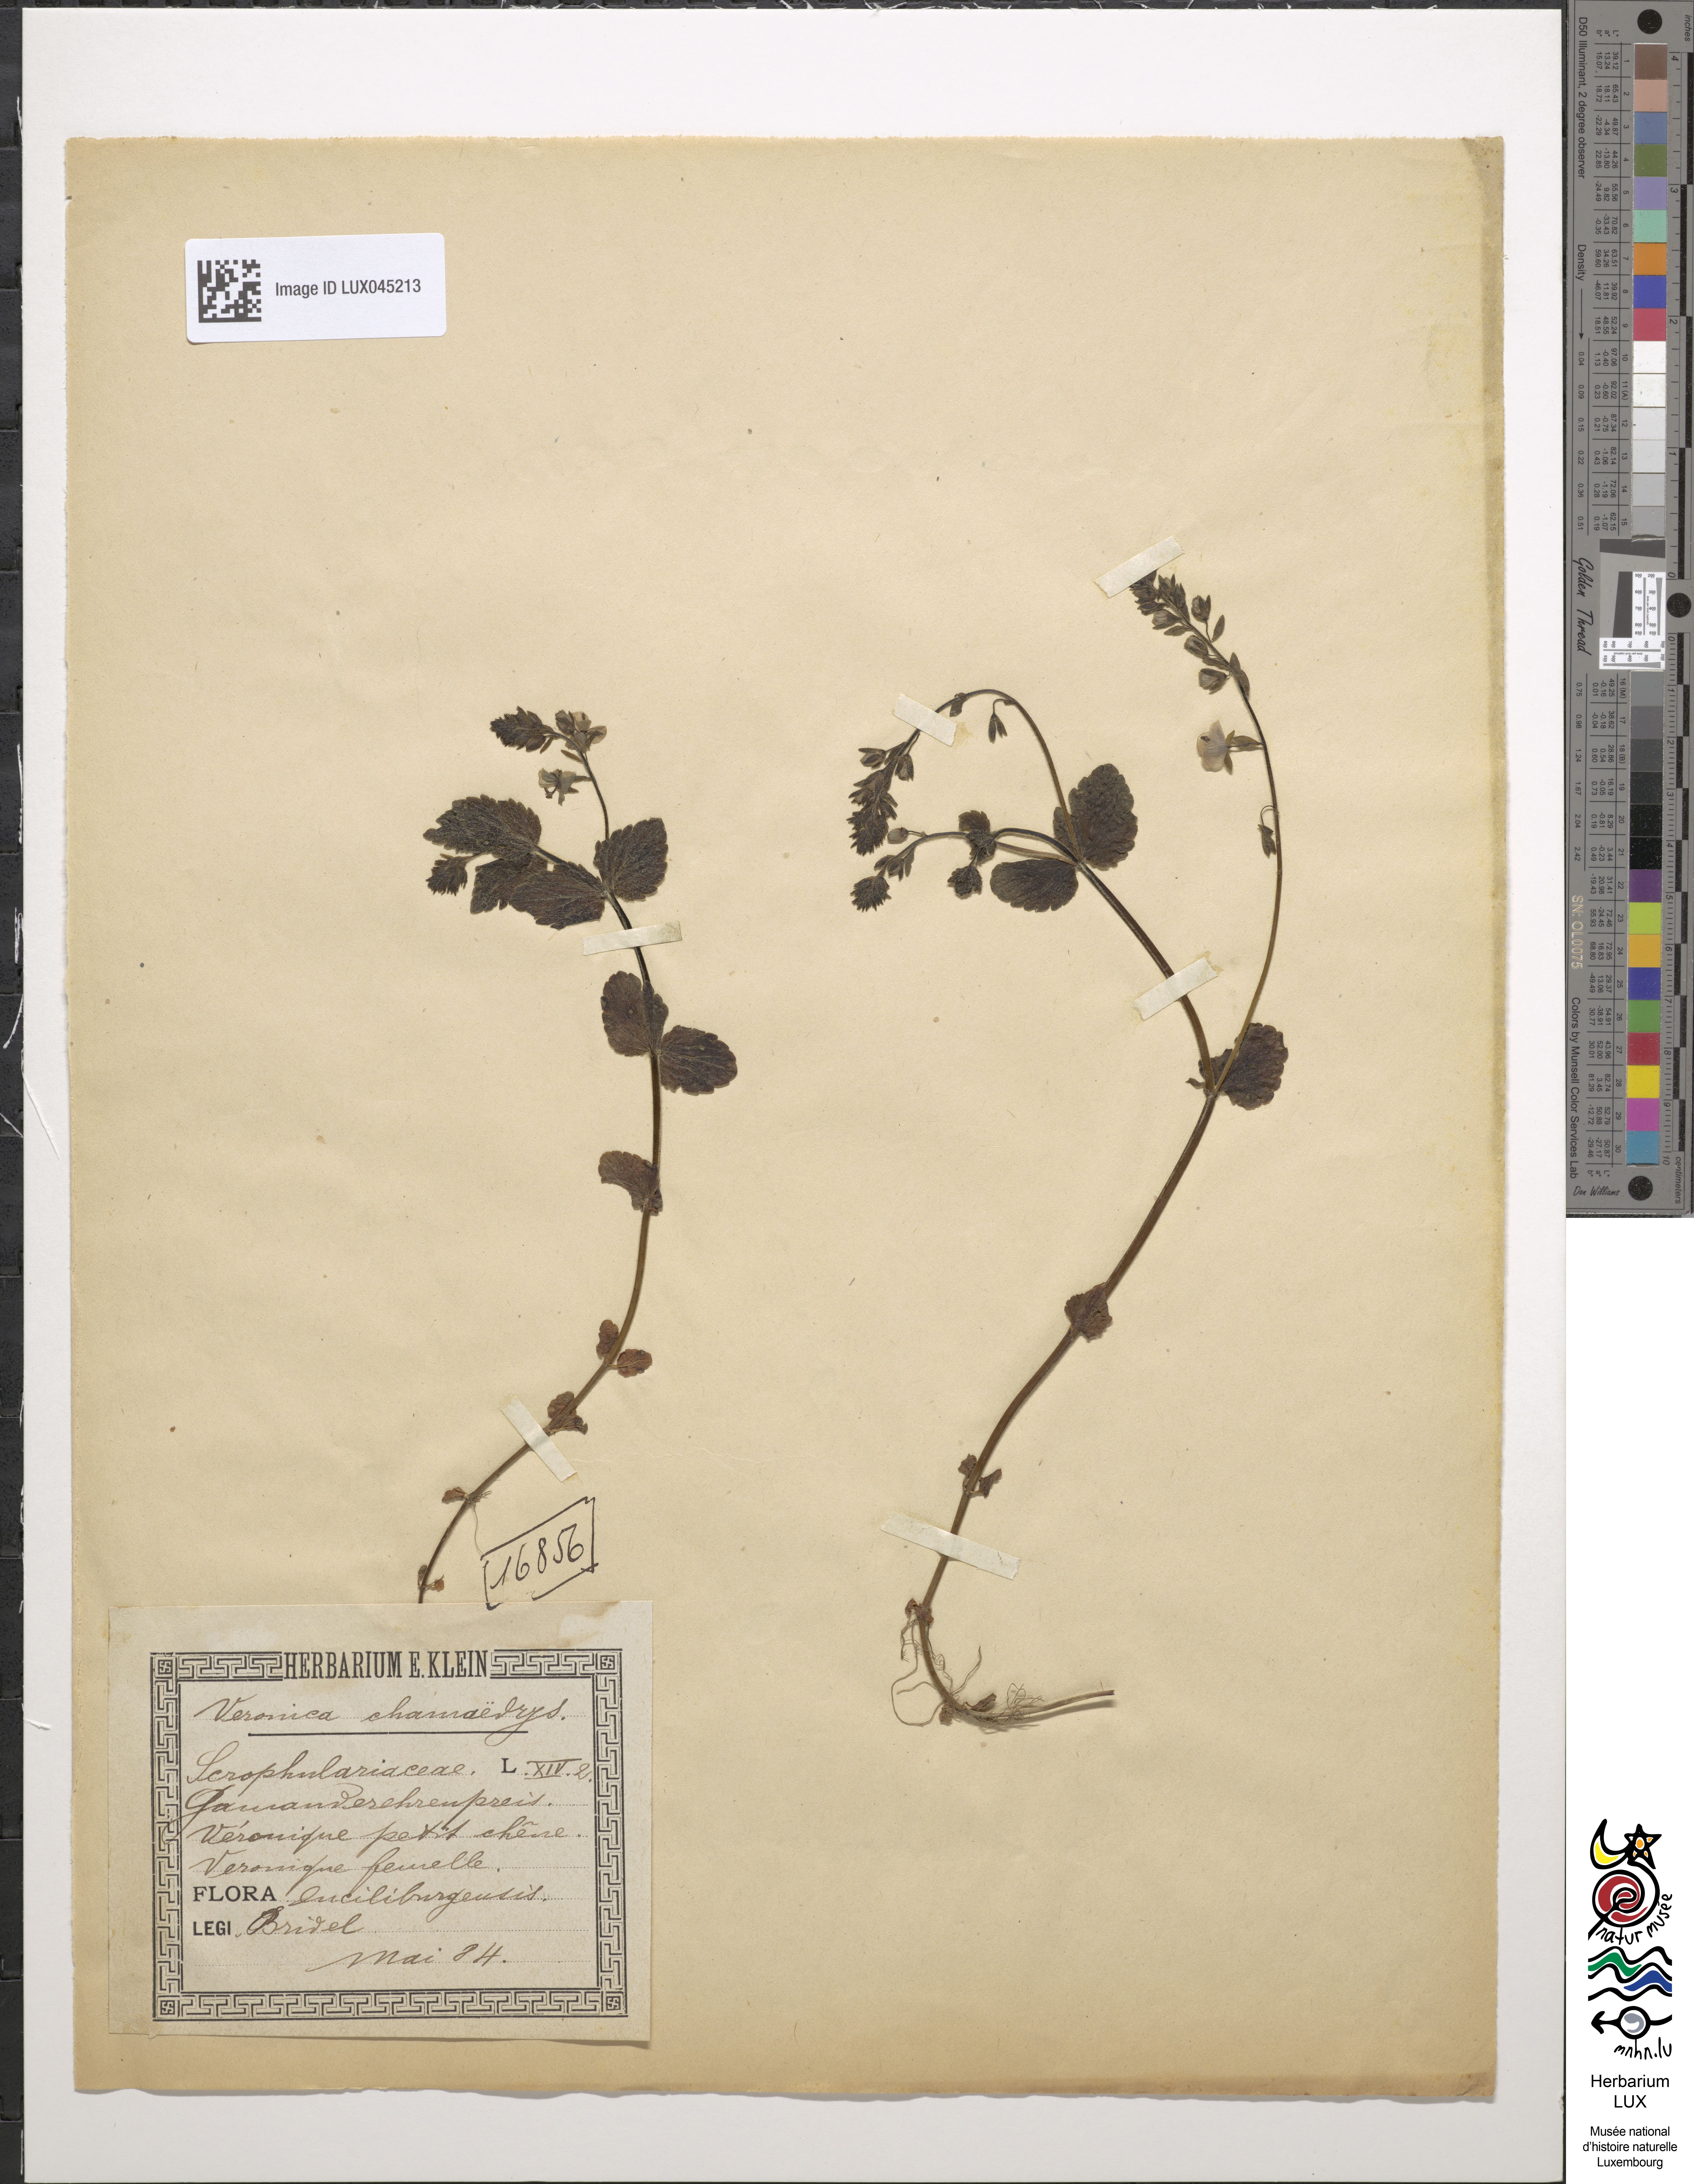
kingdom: Plantae
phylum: Tracheophyta
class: Magnoliopsida
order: Lamiales
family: Plantaginaceae
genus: Veronica
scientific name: Veronica chamaedrys
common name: Germander speedwell
